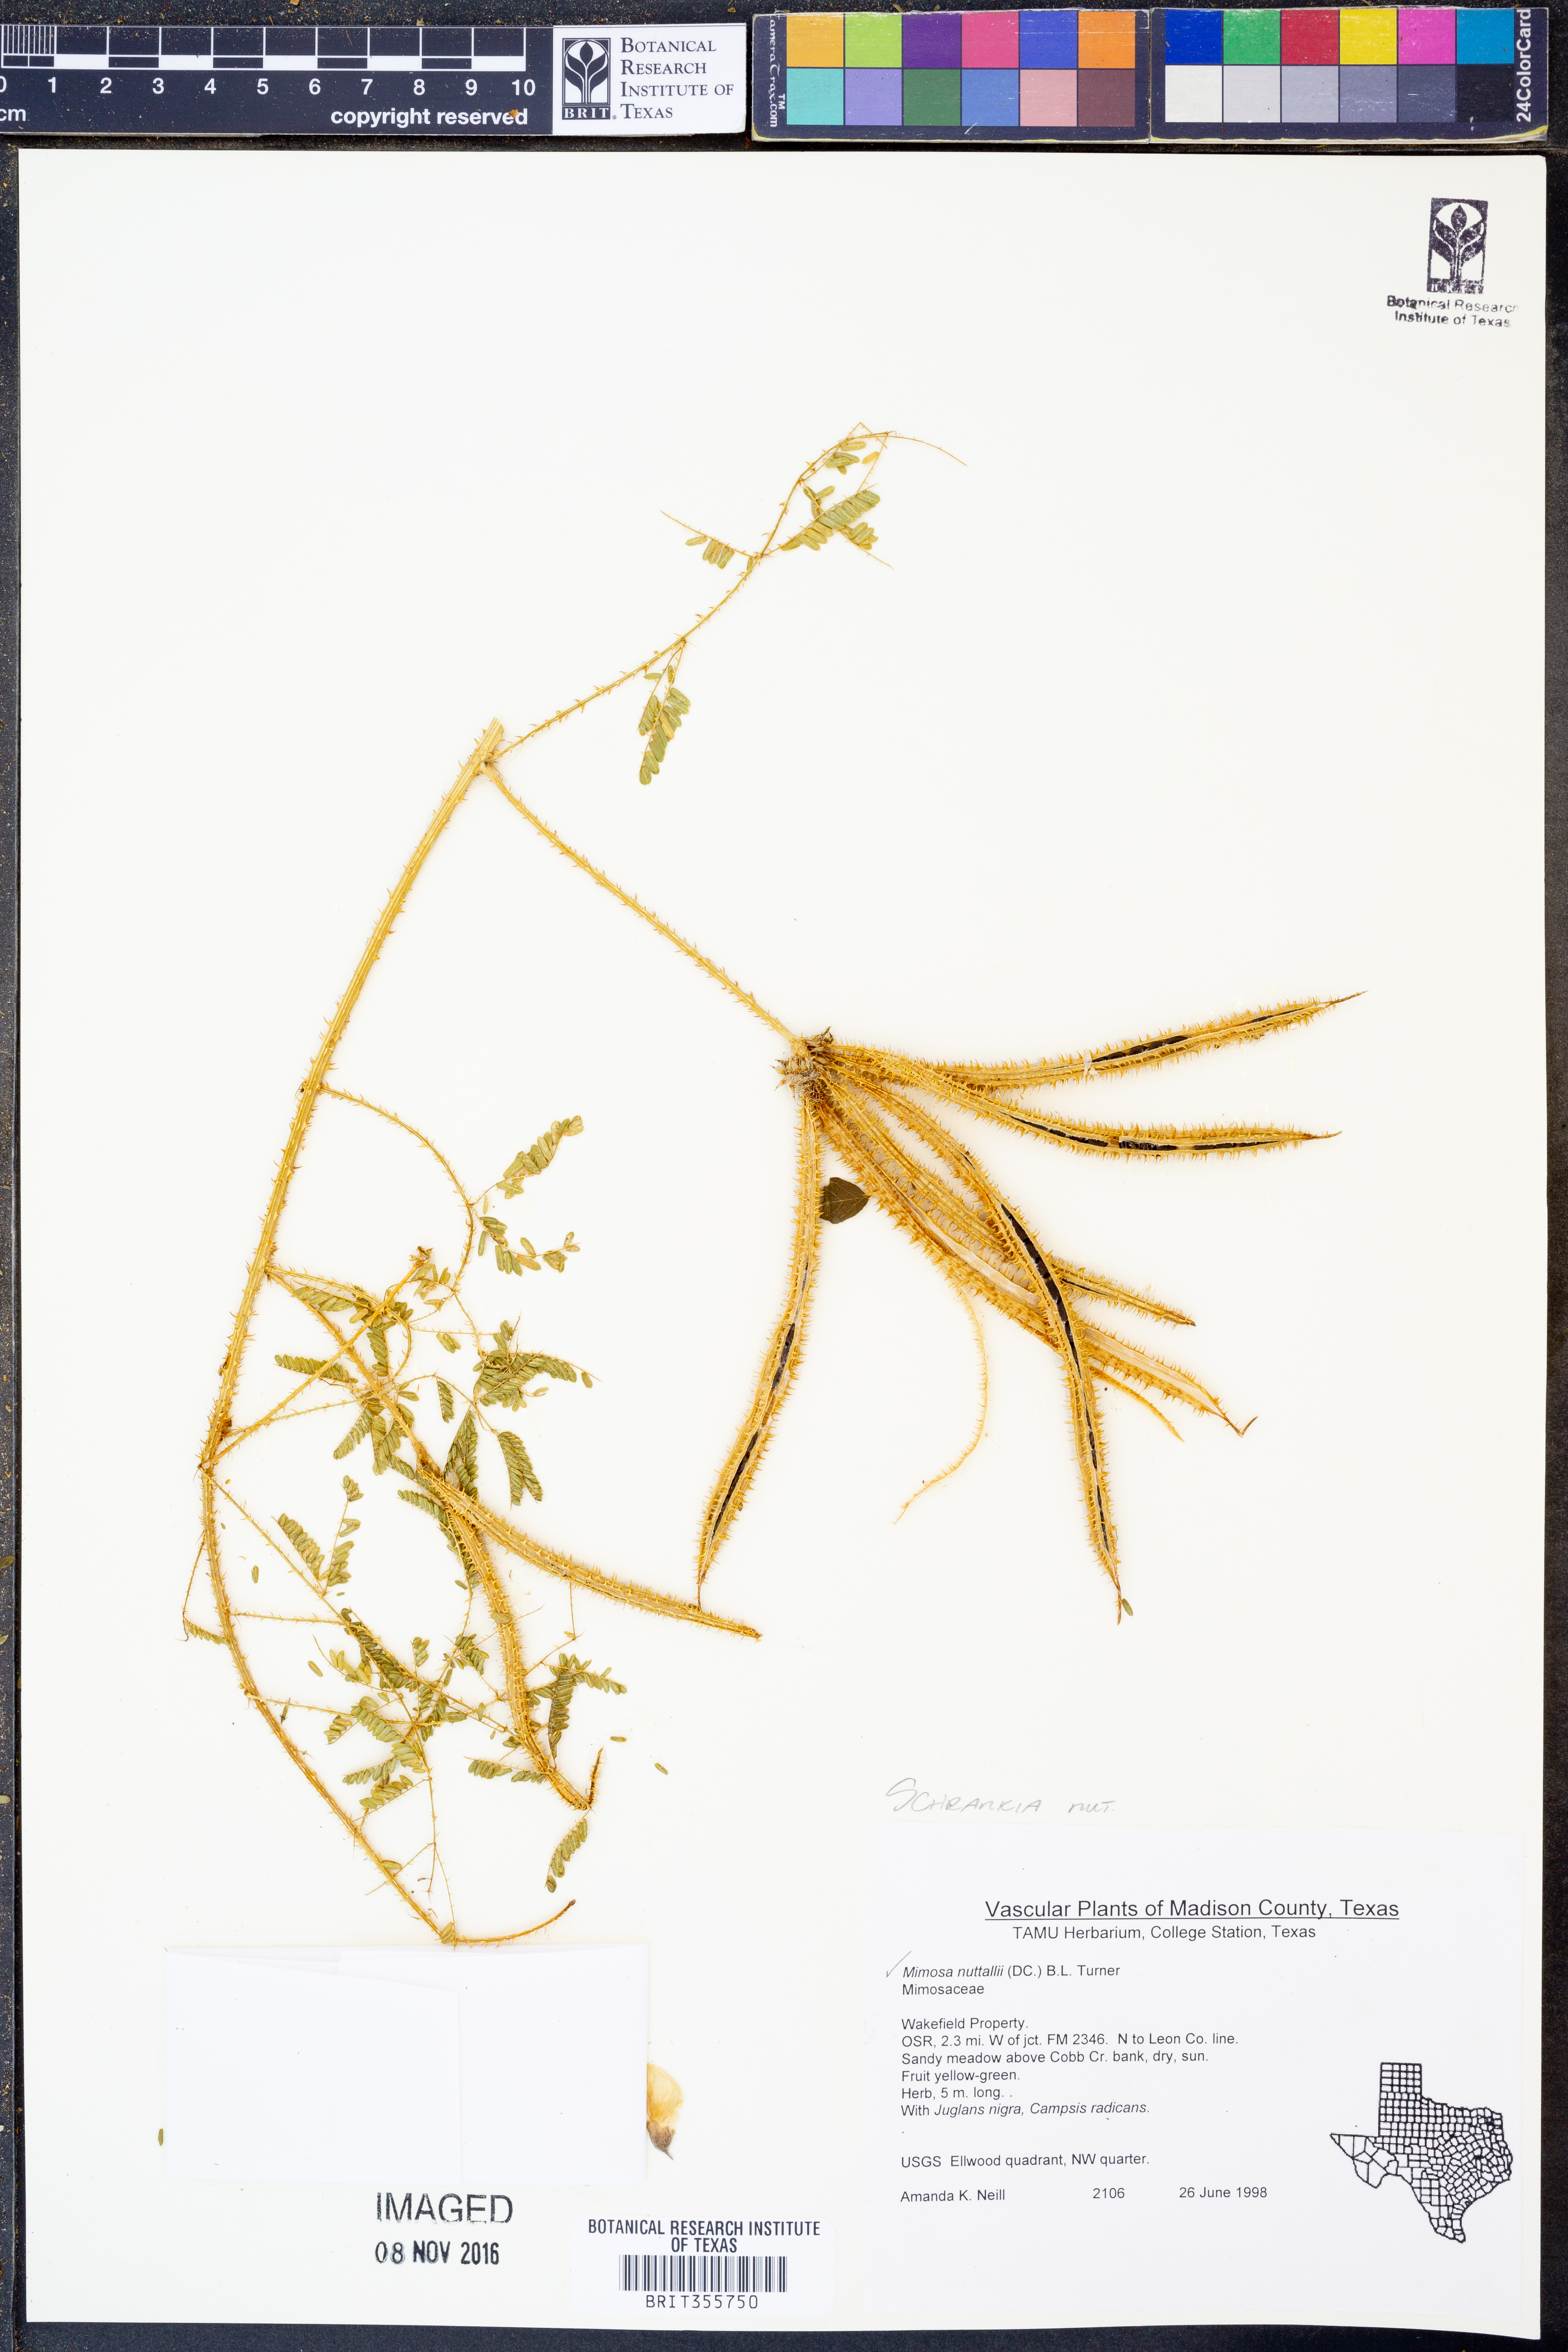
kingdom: Plantae
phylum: Tracheophyta
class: Magnoliopsida
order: Fabales
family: Fabaceae
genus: Mimosa
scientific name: Mimosa quadrivalvis
